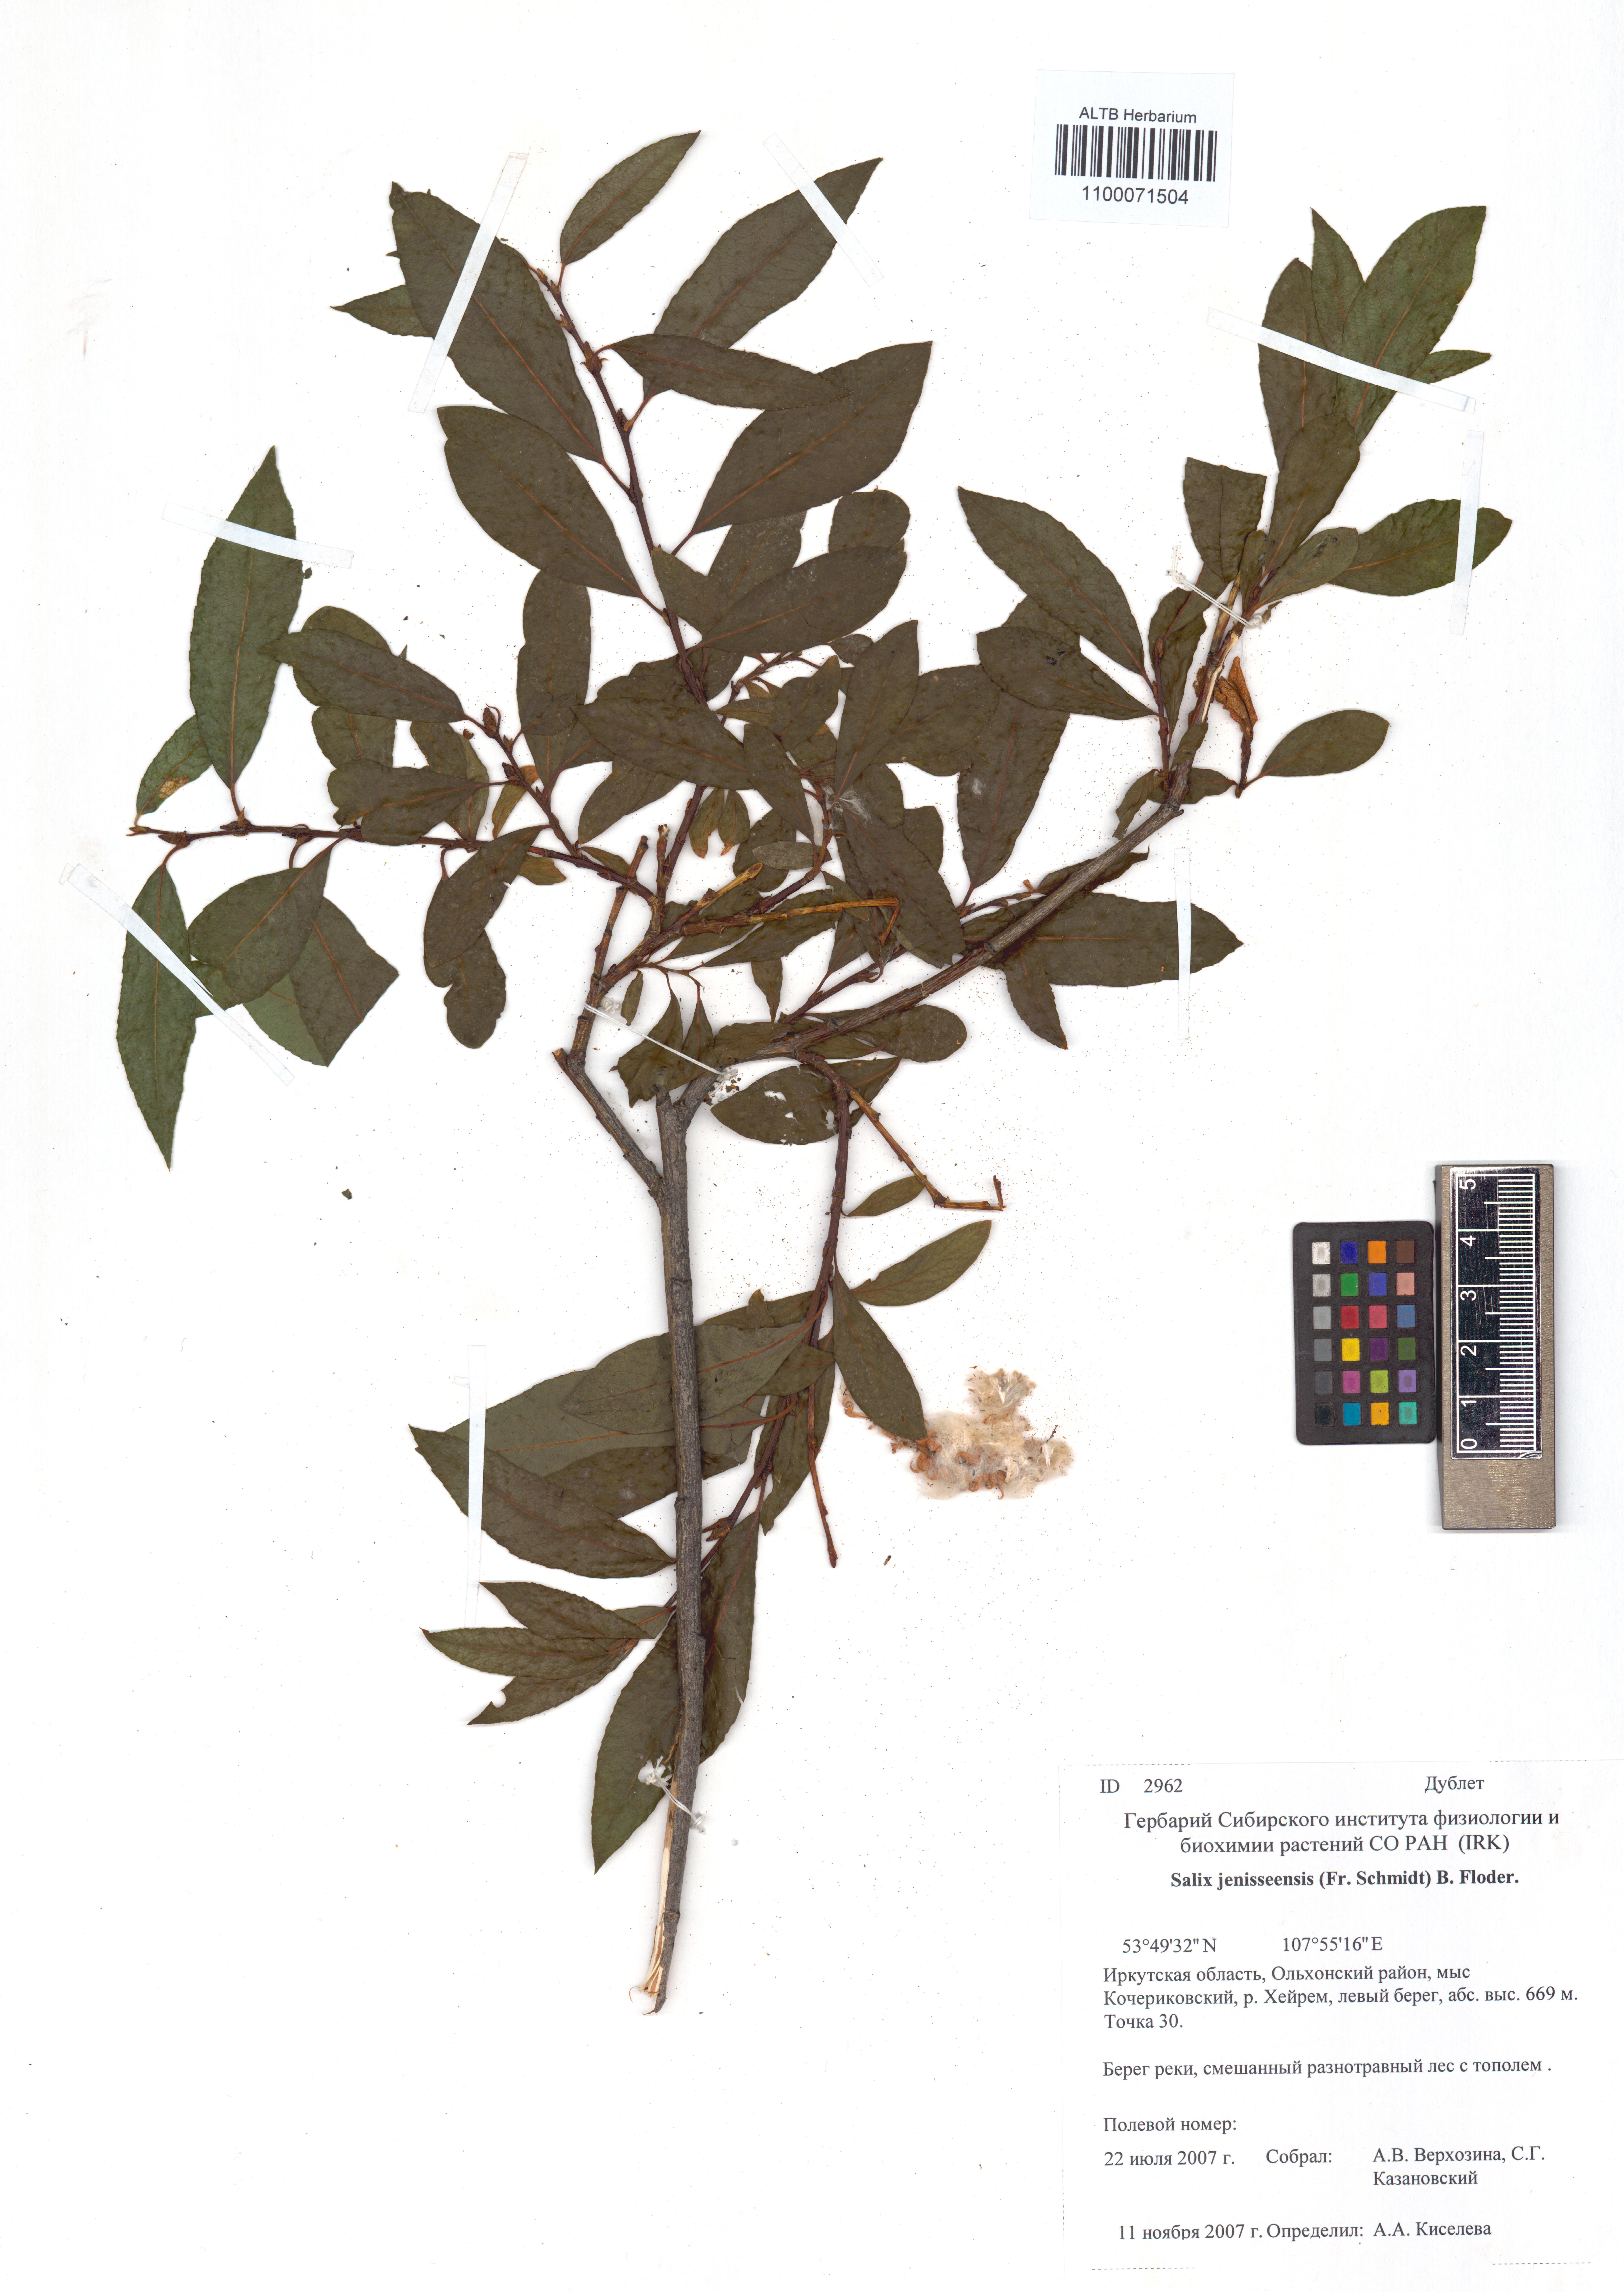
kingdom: Plantae
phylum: Tracheophyta
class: Magnoliopsida
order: Malpighiales
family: Salicaceae
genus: Salix
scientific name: Salix jenisseensis
